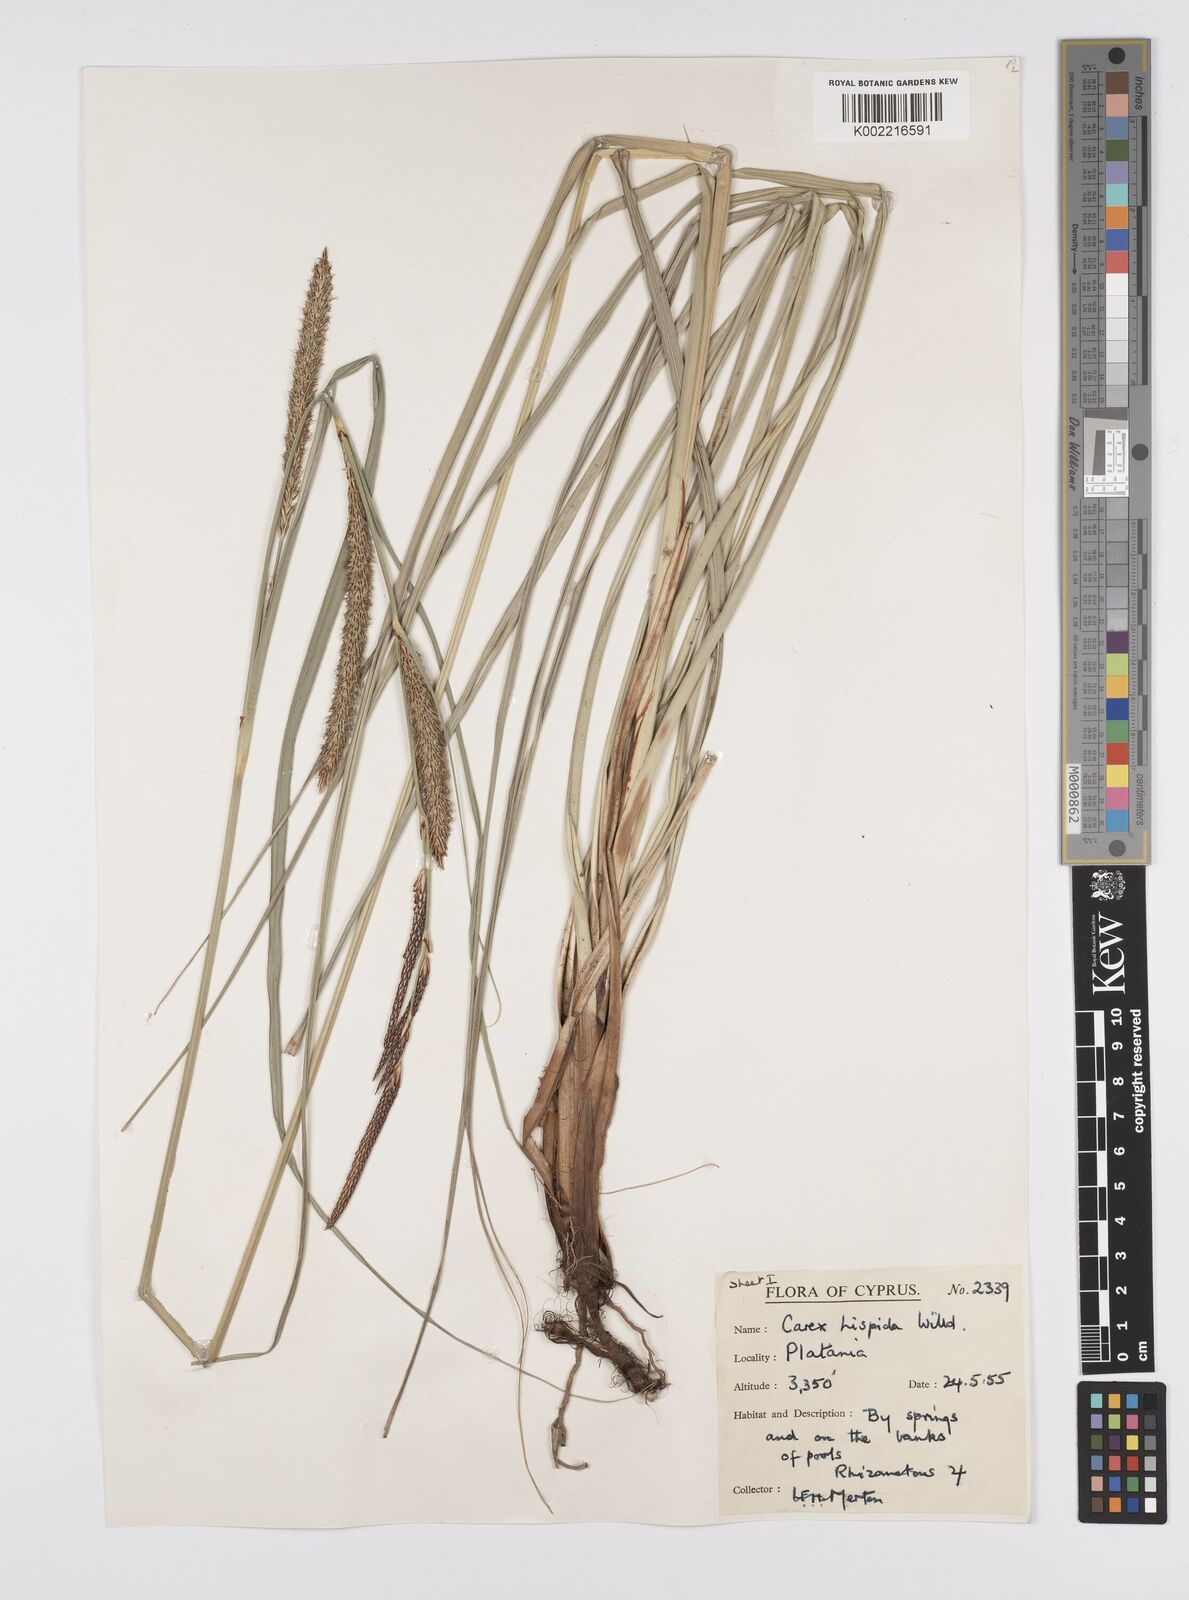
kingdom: Plantae
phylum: Tracheophyta
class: Liliopsida
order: Poales
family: Cyperaceae
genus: Carex
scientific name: Carex hispida
